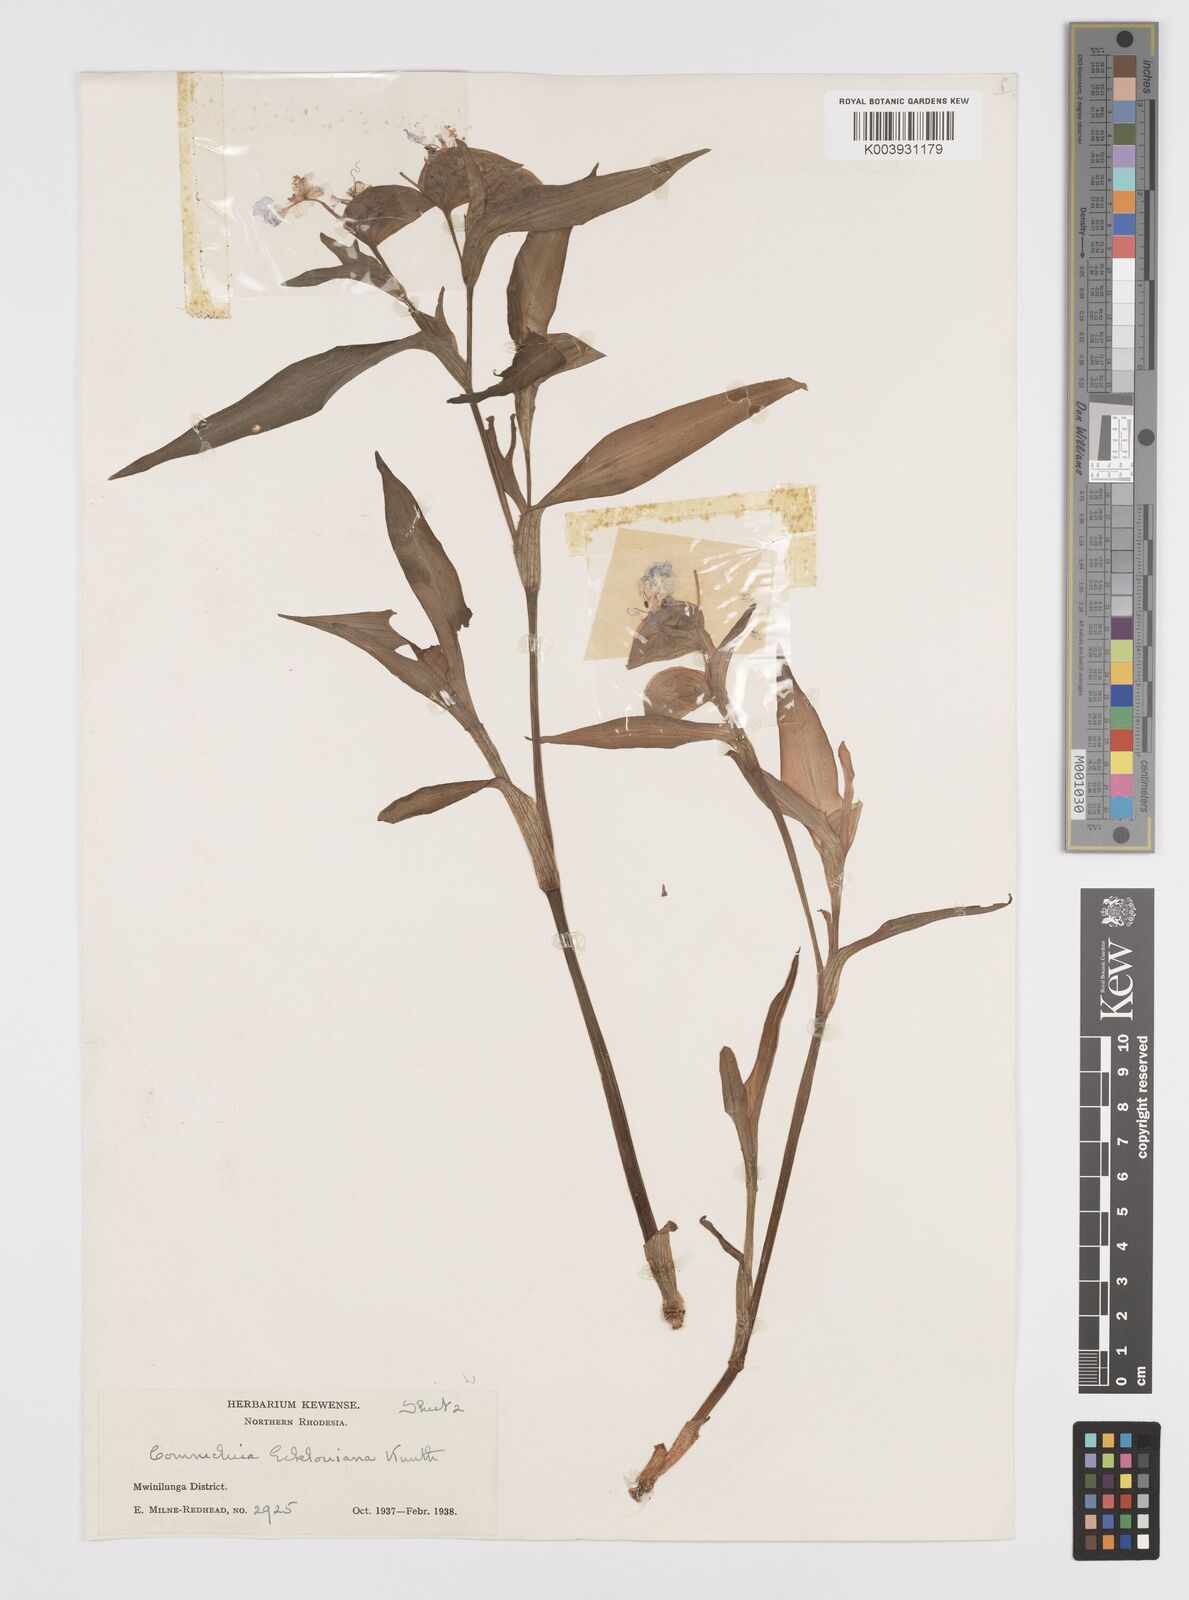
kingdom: Plantae
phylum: Tracheophyta
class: Liliopsida
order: Commelinales
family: Commelinaceae
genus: Commelina
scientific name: Commelina eckloniana
